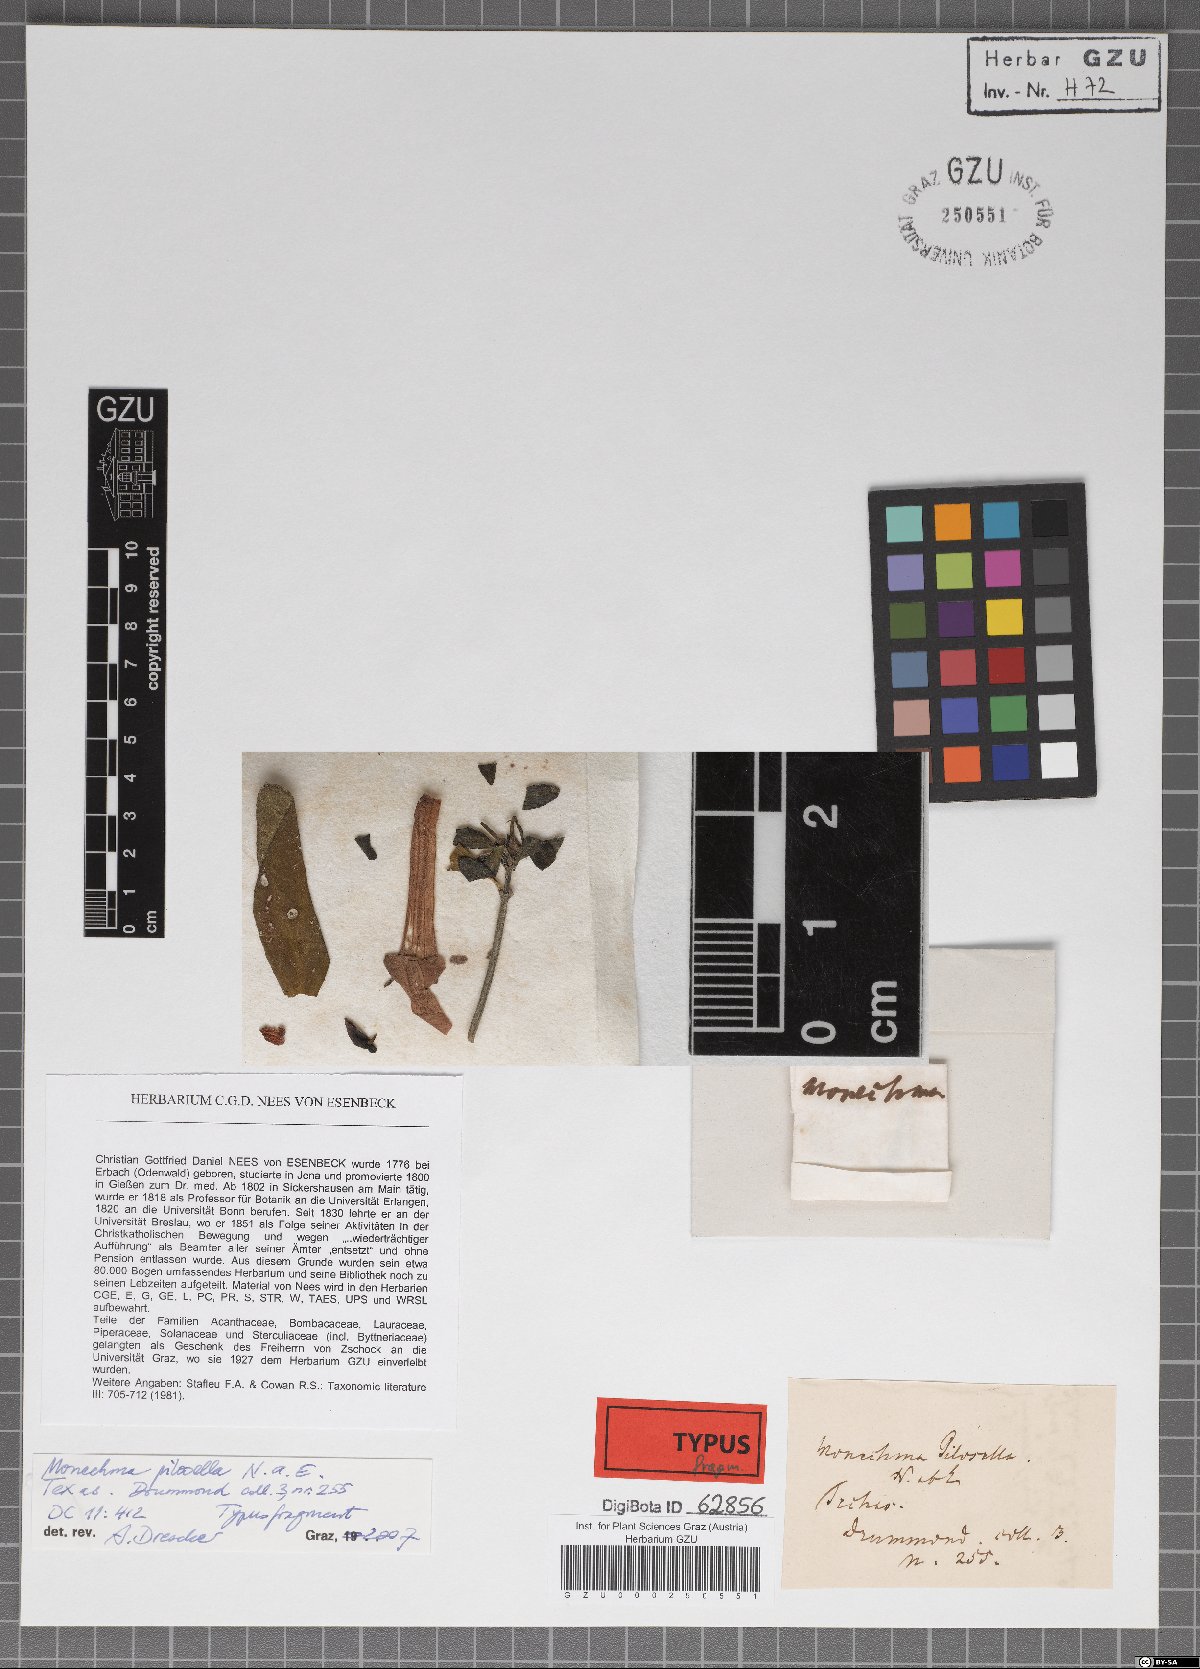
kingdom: Plantae
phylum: Tracheophyta
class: Magnoliopsida
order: Lamiales
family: Acanthaceae
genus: Justicia
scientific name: Justicia pilosella
